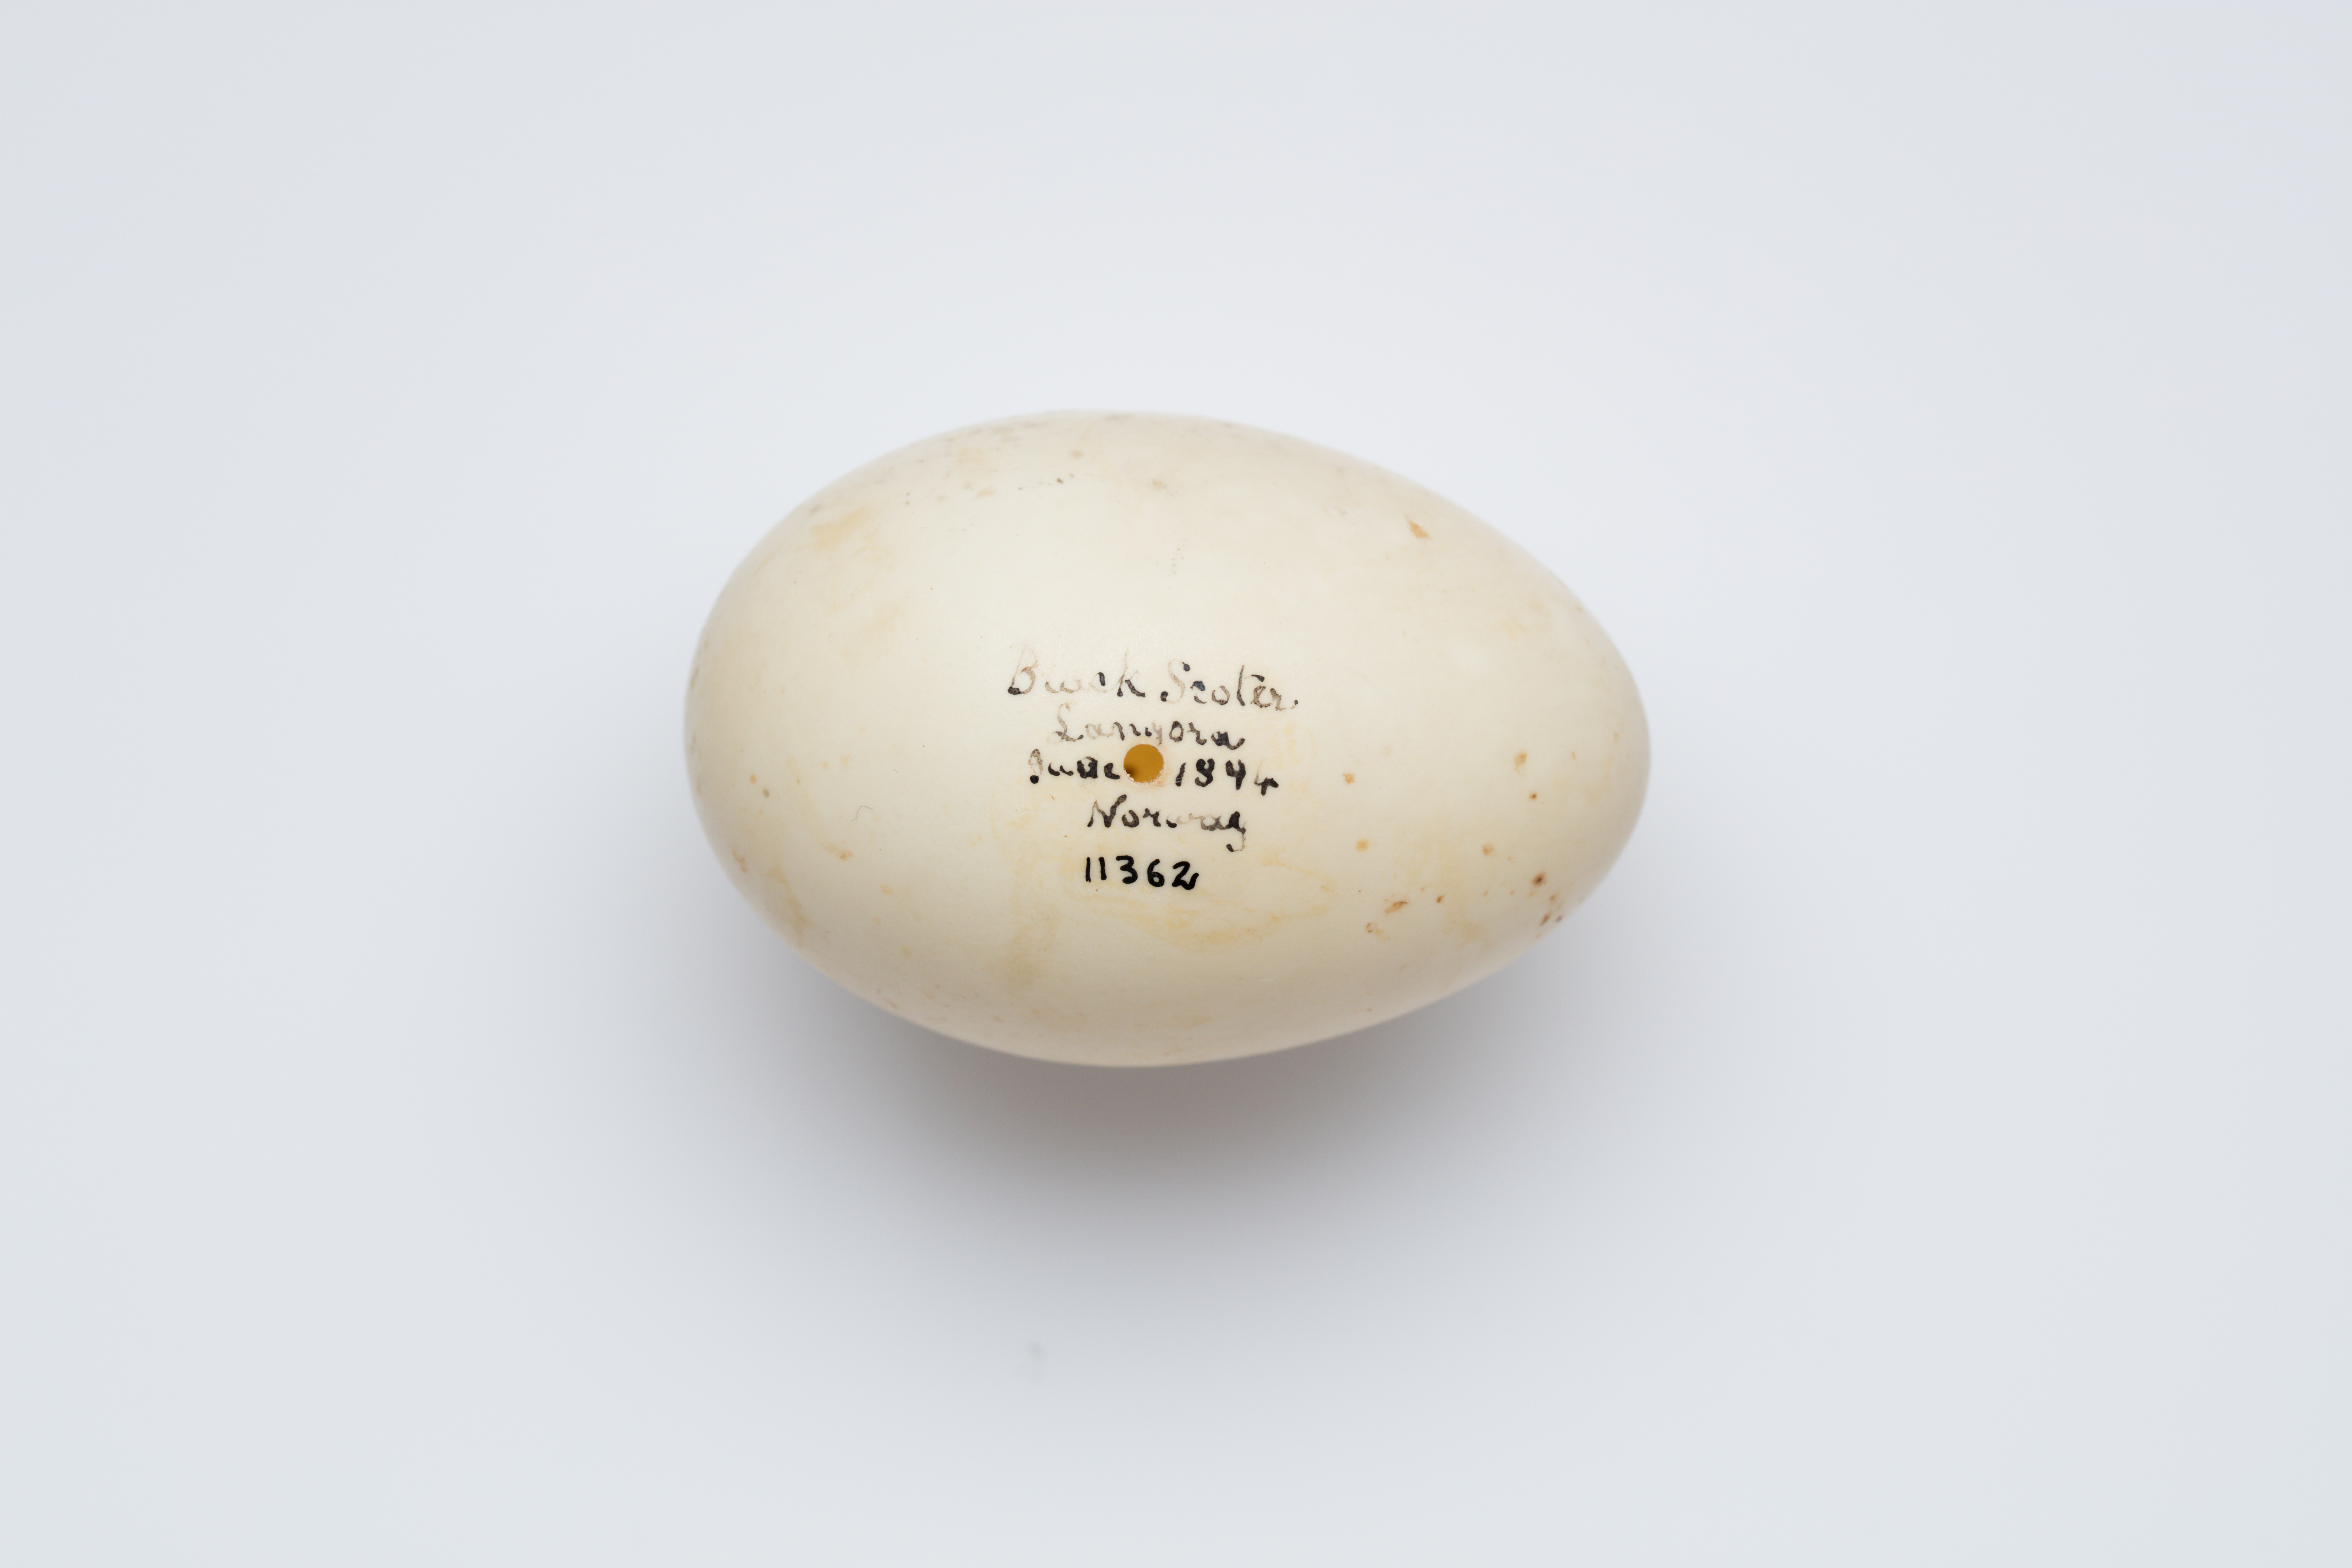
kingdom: Animalia
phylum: Chordata
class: Aves
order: Anseriformes
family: Anatidae
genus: Melanitta
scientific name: Melanitta nigra
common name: Common scoter
